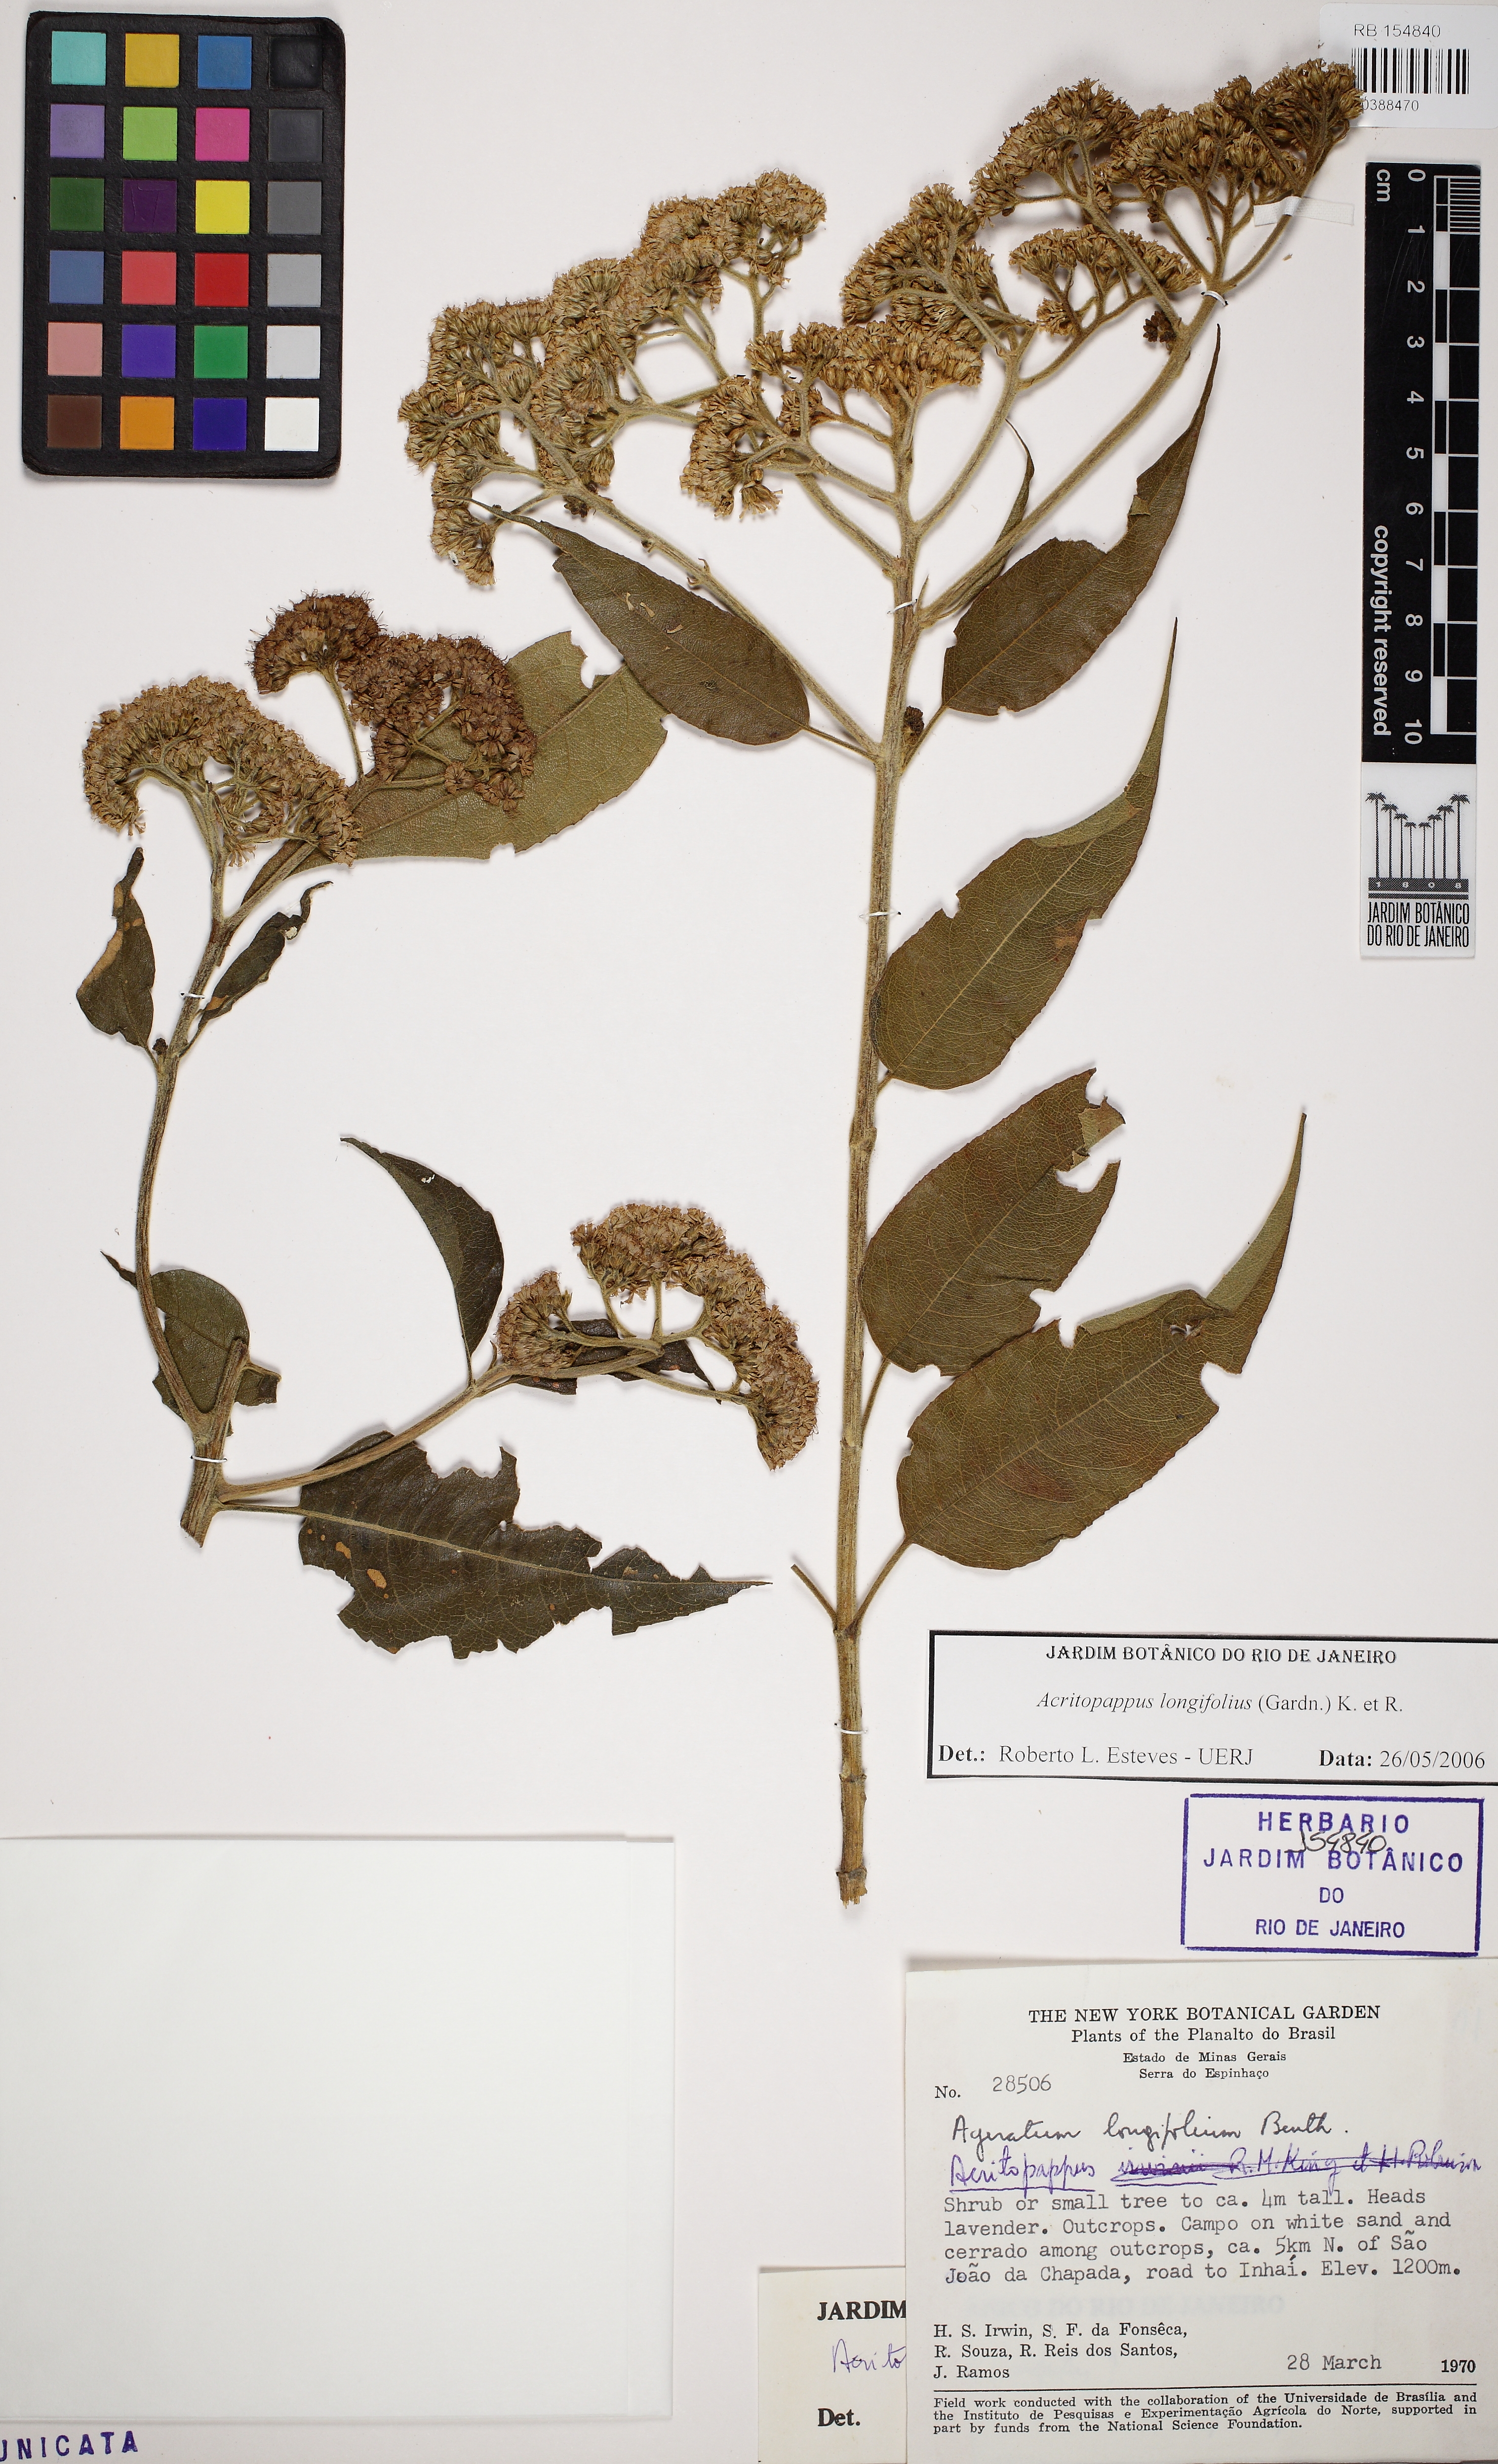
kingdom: Plantae
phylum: Tracheophyta
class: Magnoliopsida
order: Asterales
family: Asteraceae
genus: Acritopappus
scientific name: Acritopappus subtomentosus
